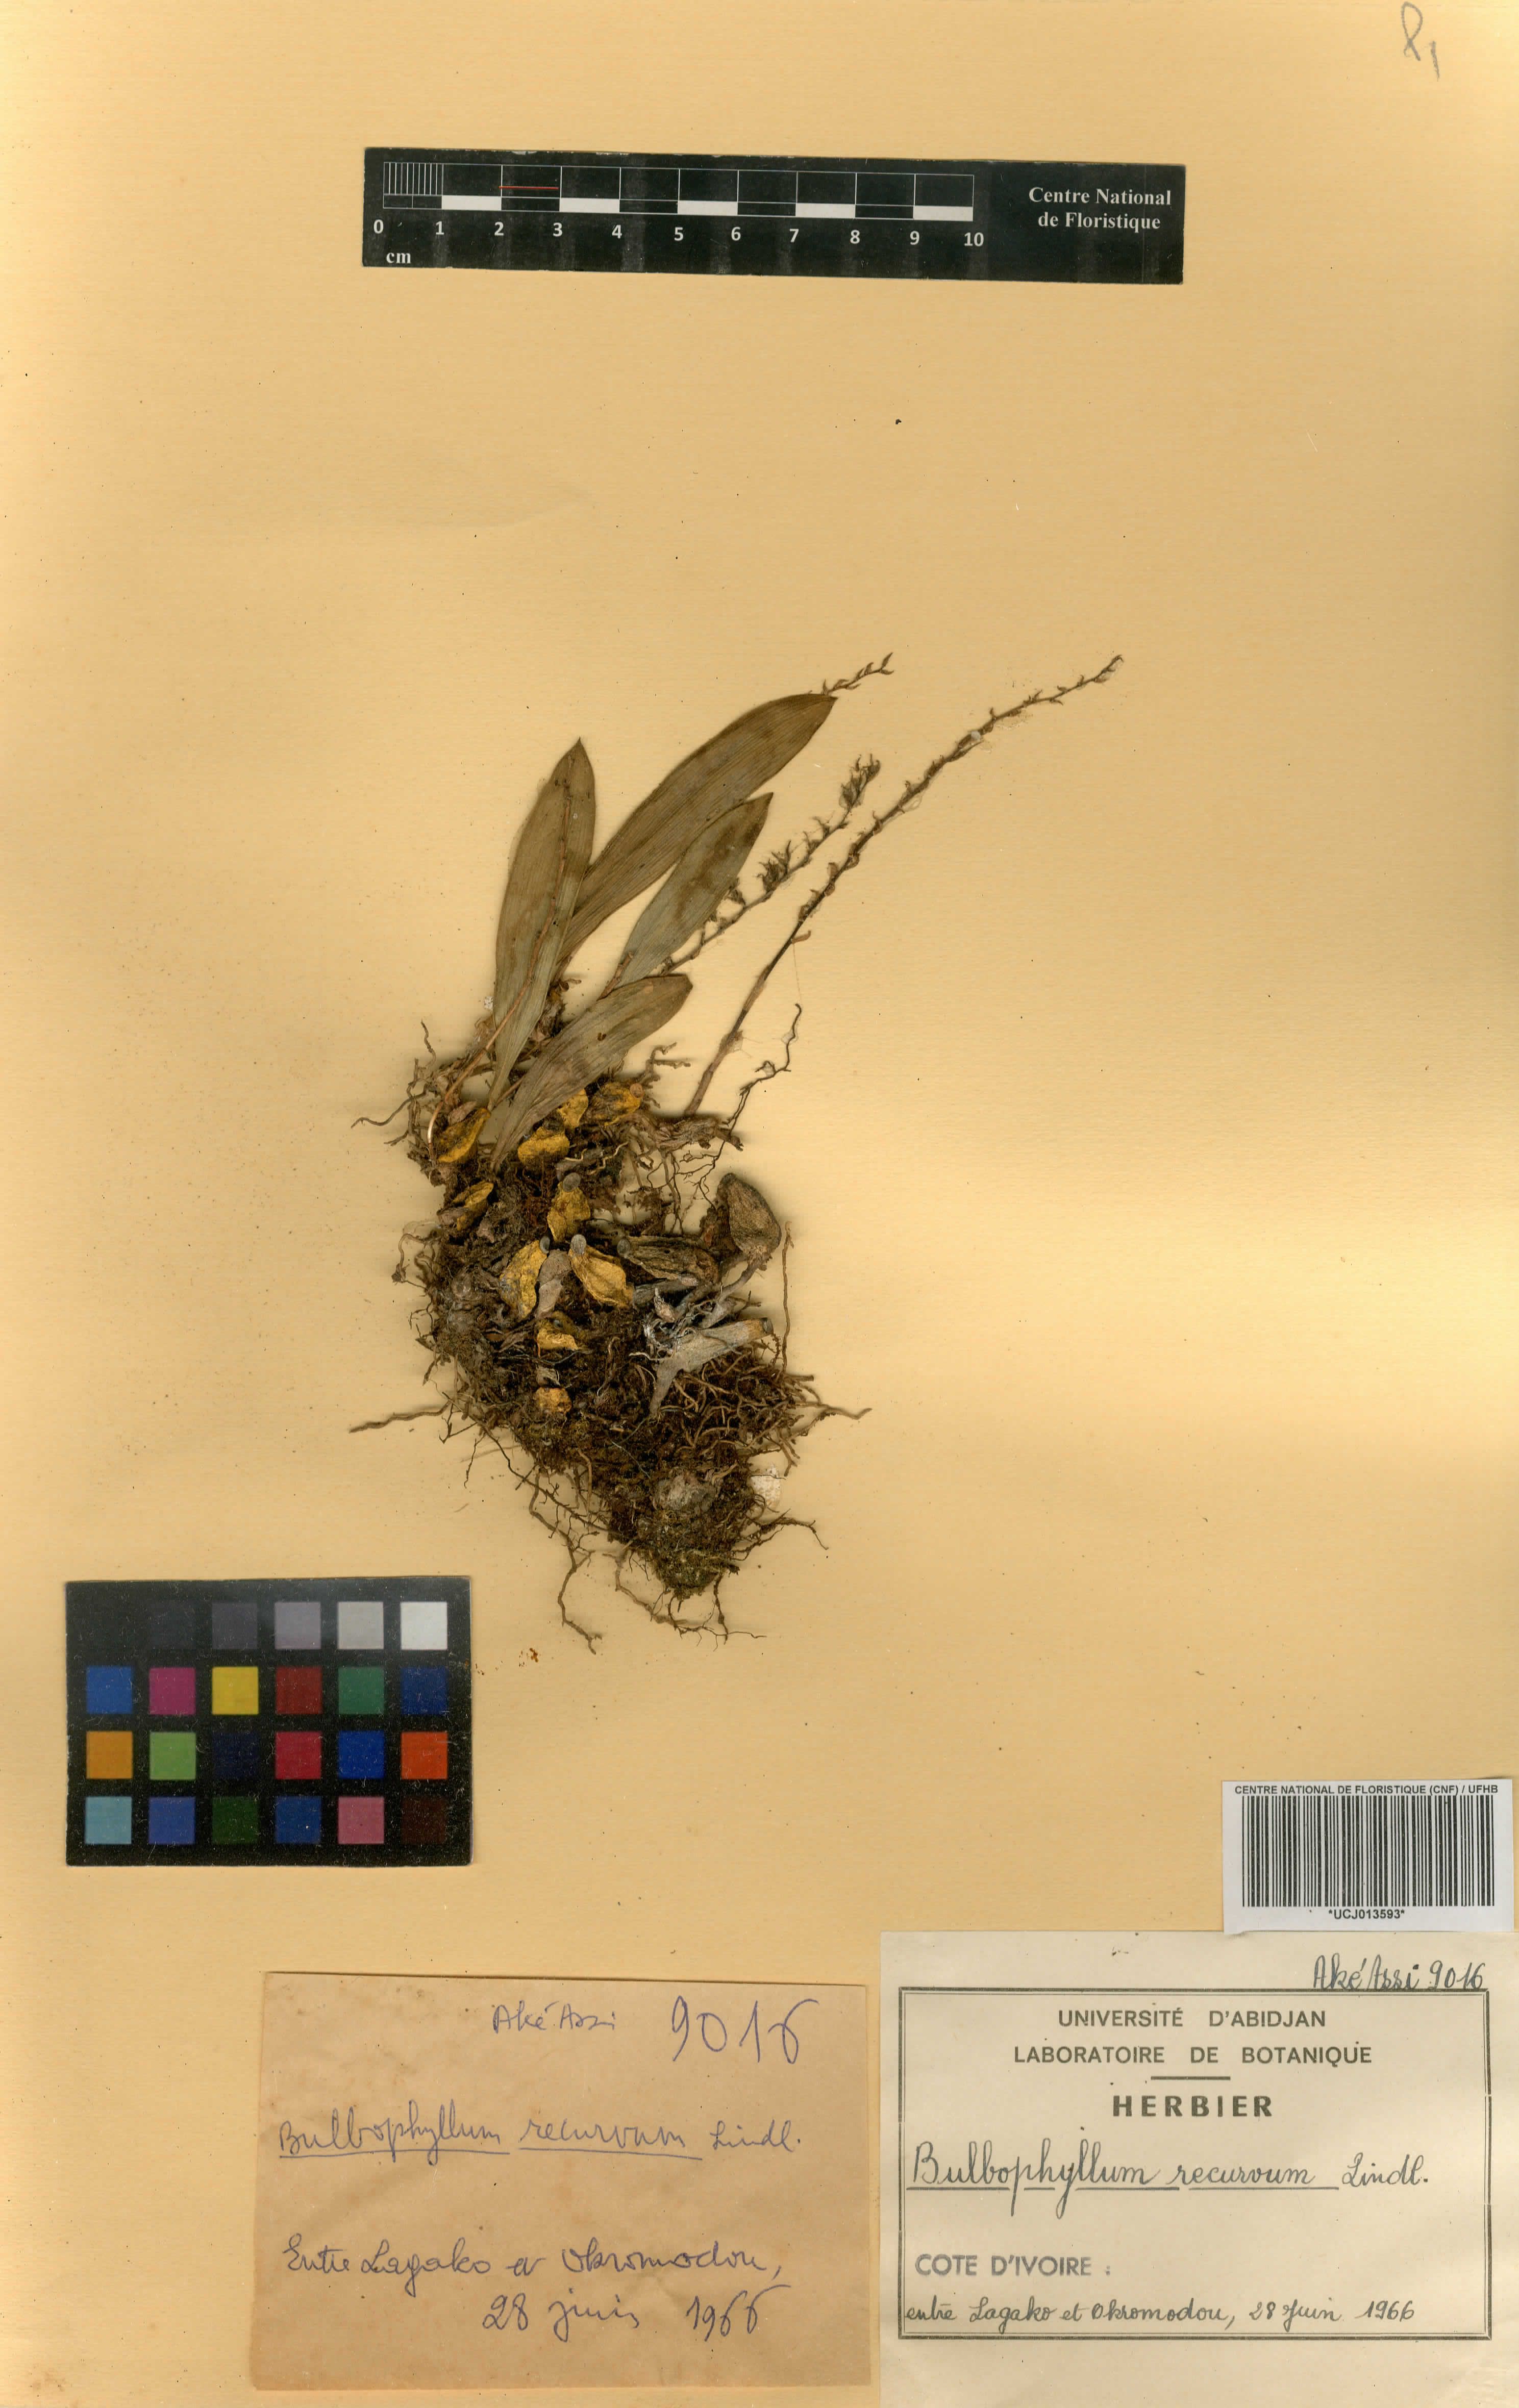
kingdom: Plantae
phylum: Tracheophyta
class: Liliopsida
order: Asparagales
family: Orchidaceae
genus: Bulbophyllum
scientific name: Bulbophyllum pumilum
